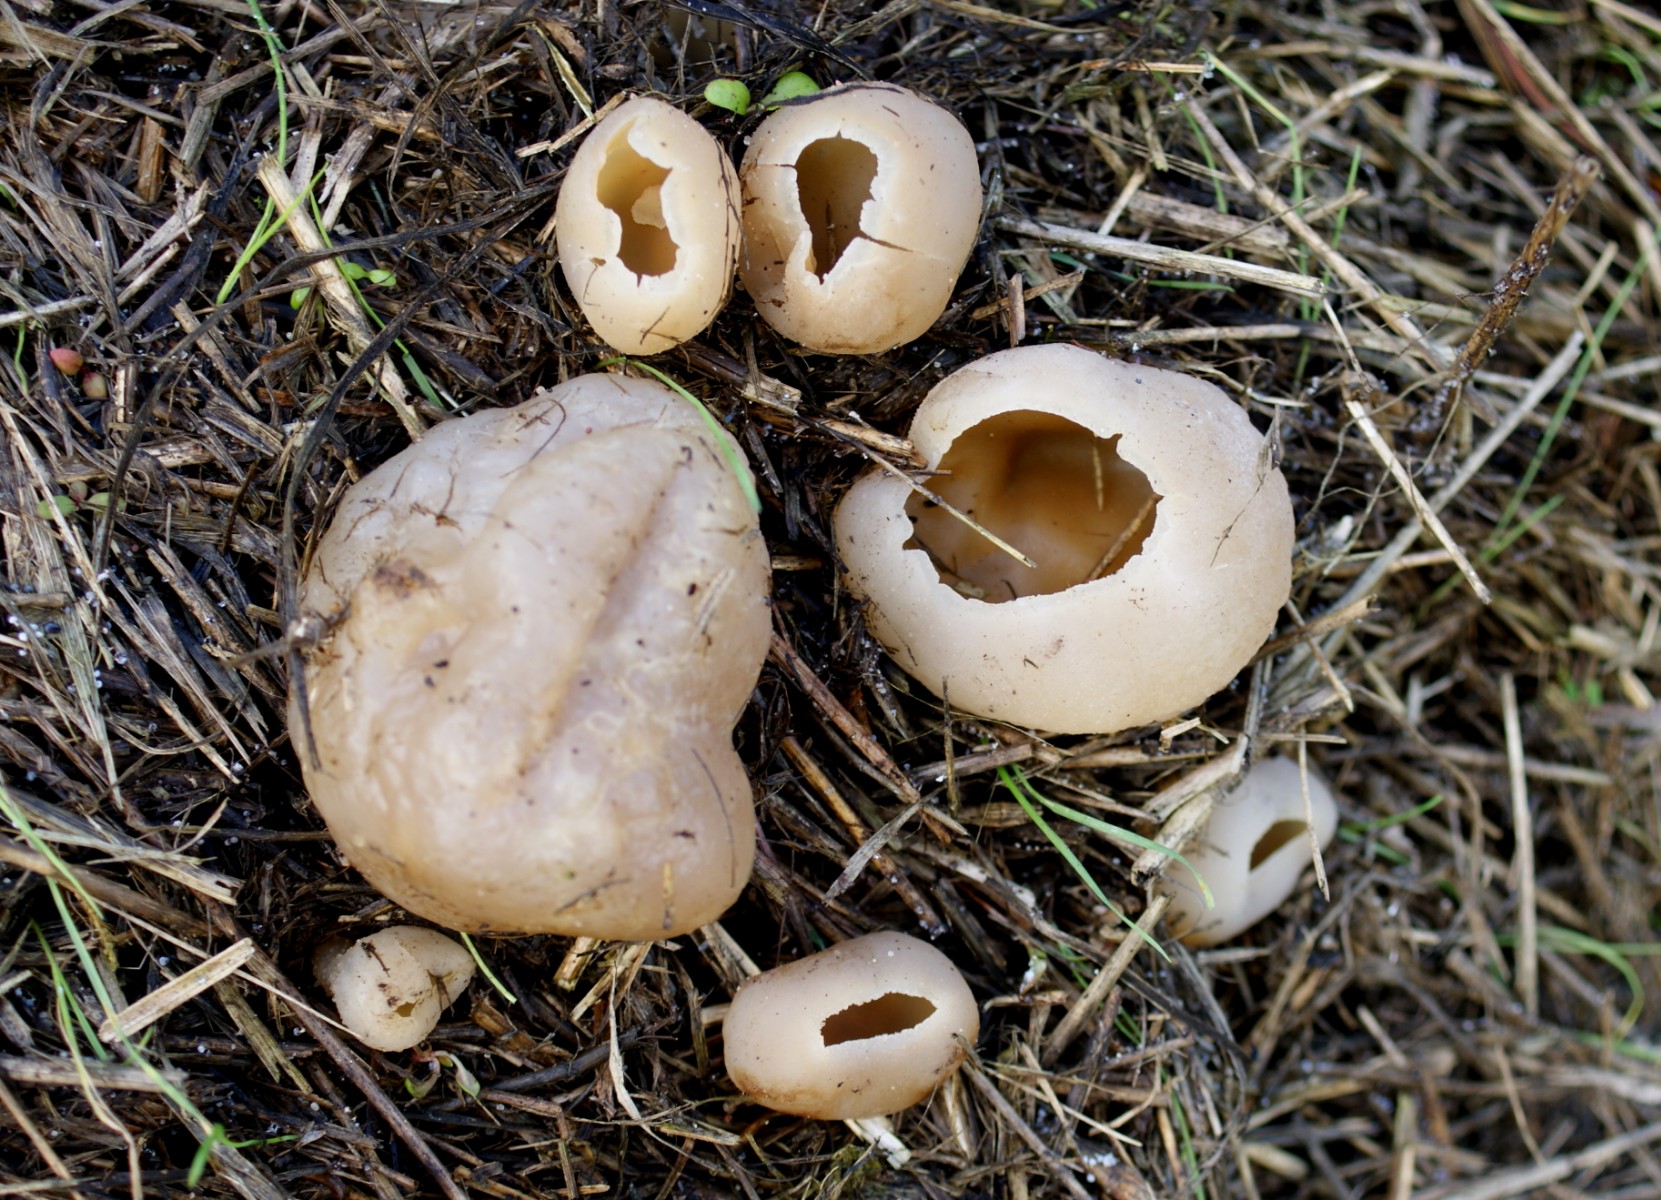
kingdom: Fungi
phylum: Ascomycota
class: Pezizomycetes
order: Pezizales
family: Pezizaceae
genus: Peziza
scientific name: Peziza vesiculosa
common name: blære-bægersvamp
